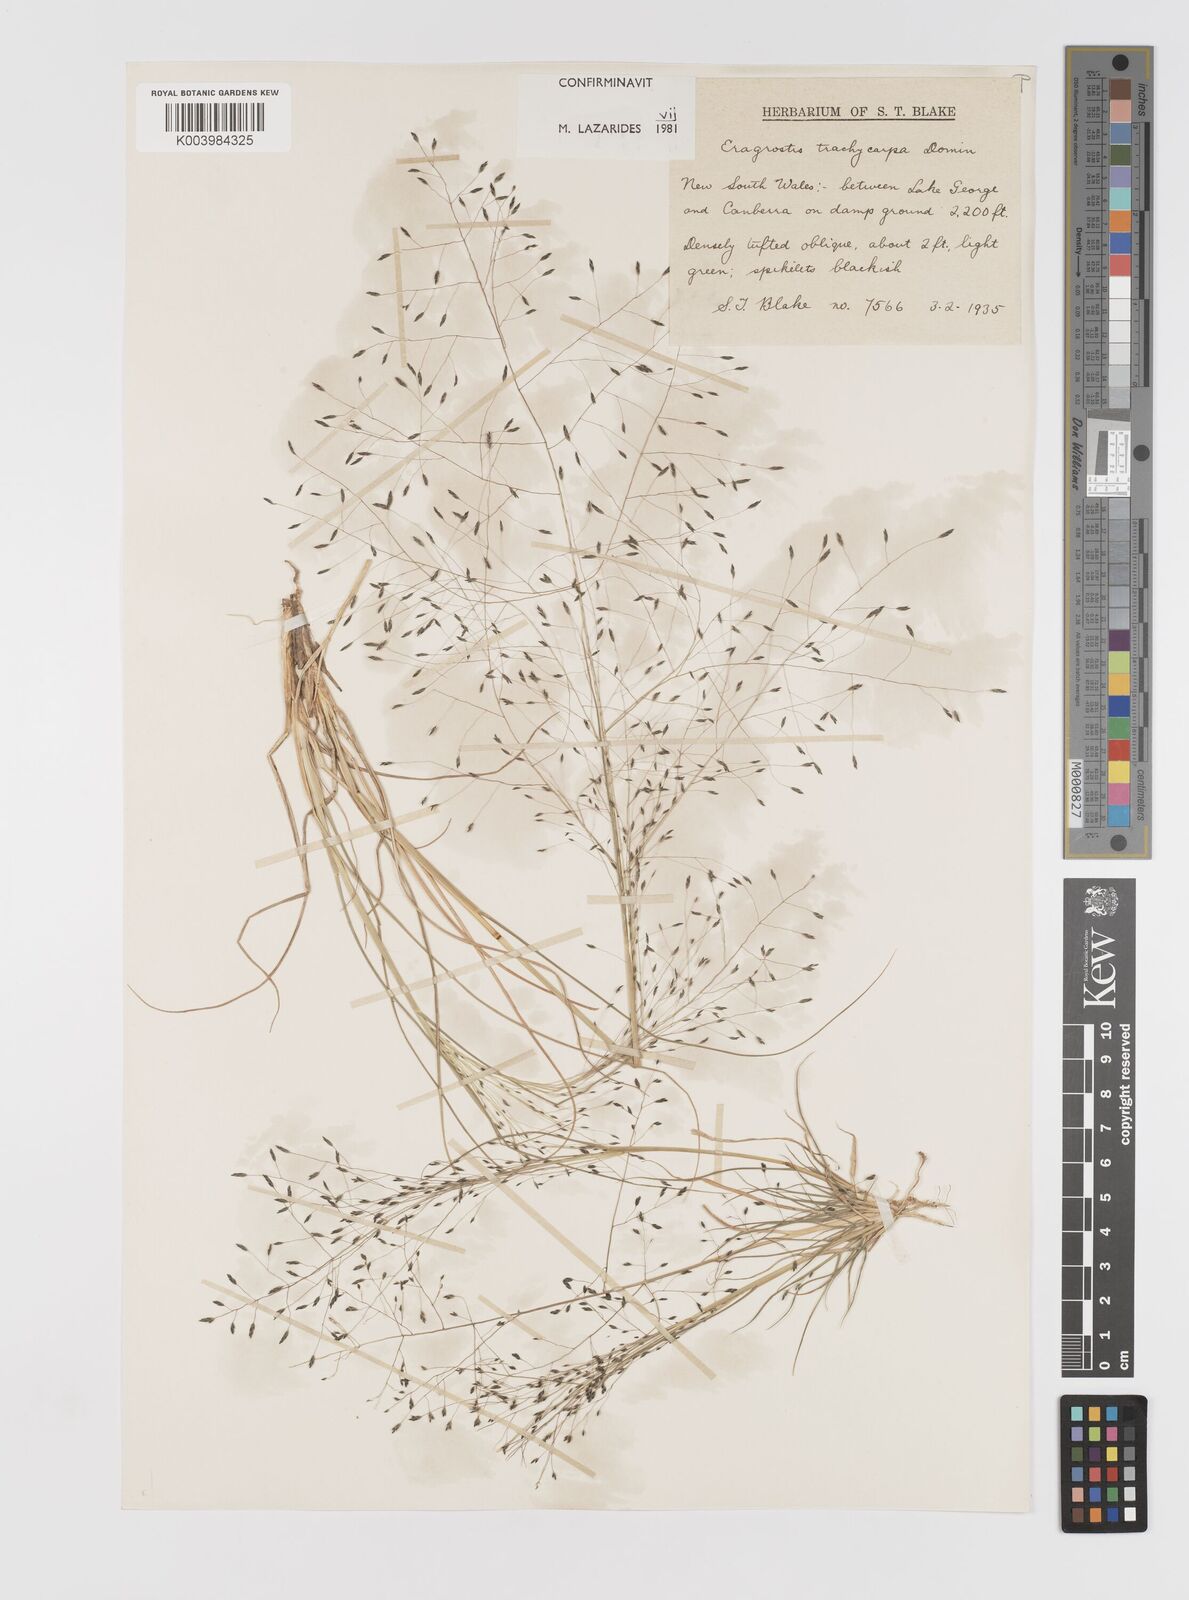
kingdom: Plantae
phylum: Tracheophyta
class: Liliopsida
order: Poales
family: Poaceae
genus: Eragrostis
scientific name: Eragrostis trachycarpa
